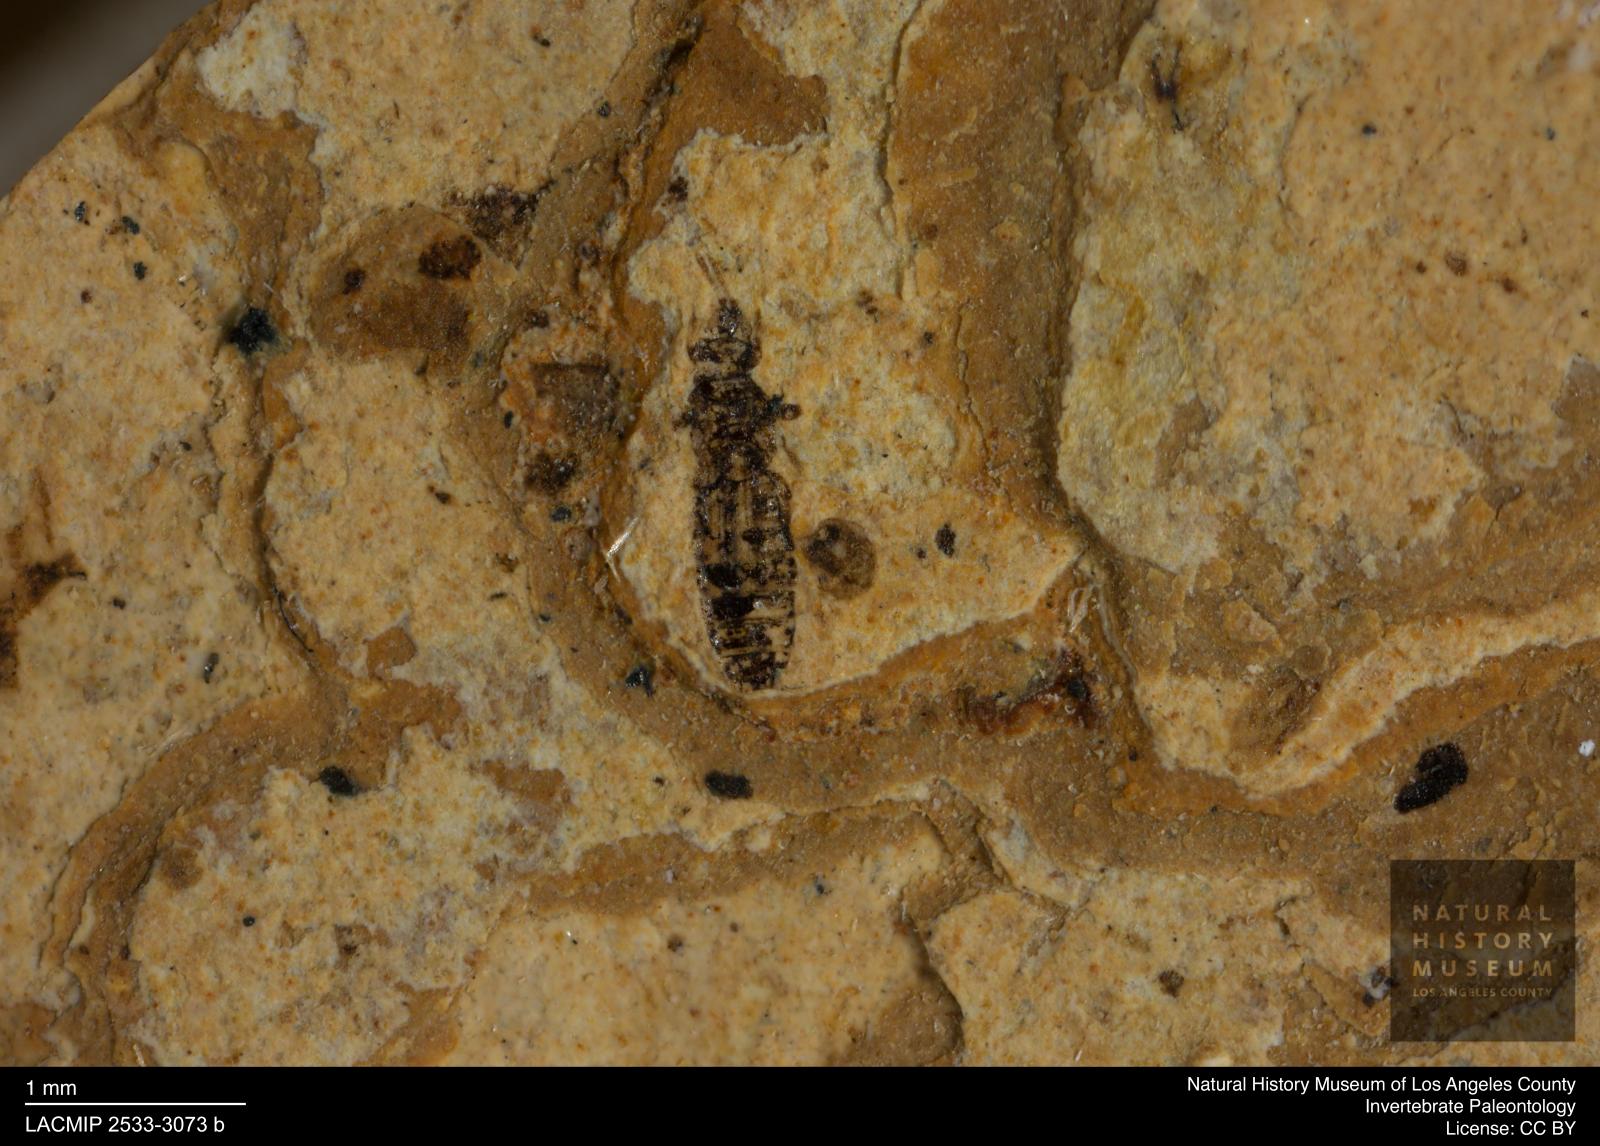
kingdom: Animalia
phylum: Arthropoda
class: Insecta
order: Thysanoptera
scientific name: Thysanoptera
